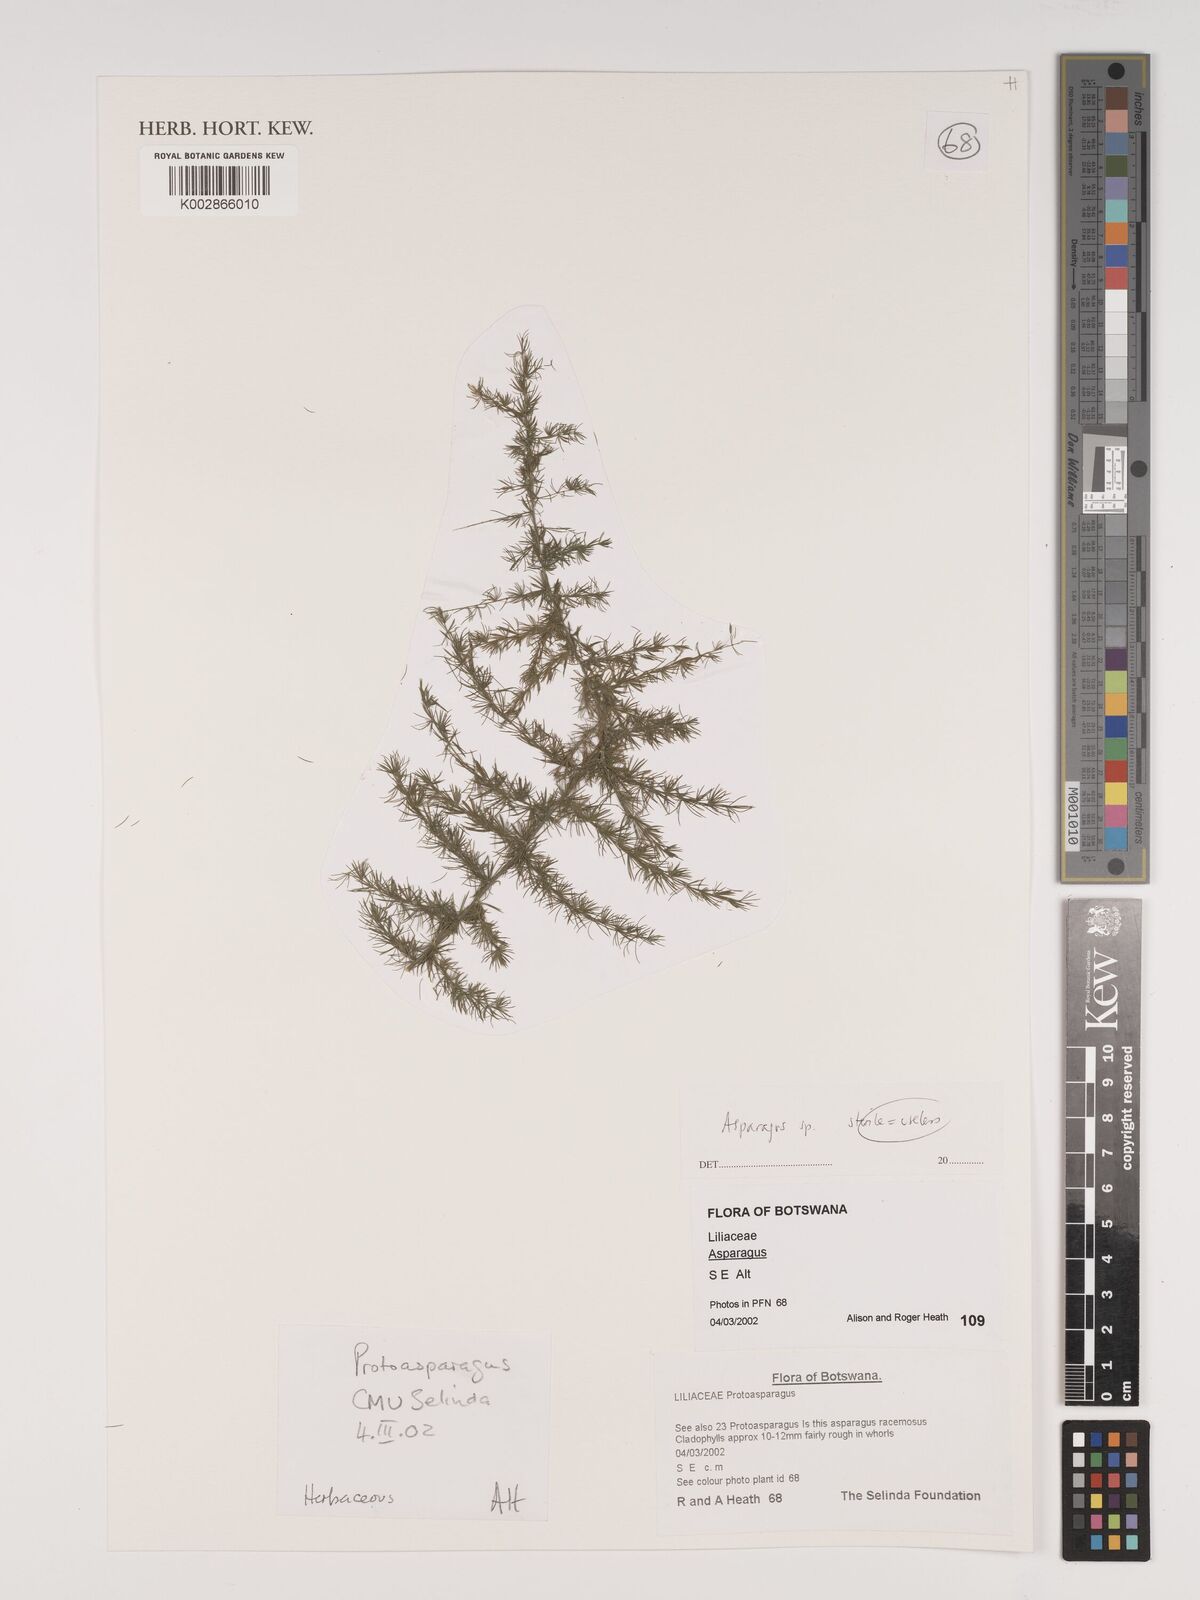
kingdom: Plantae
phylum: Tracheophyta
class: Liliopsida
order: Asparagales
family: Asparagaceae
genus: Asparagus
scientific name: Asparagus
